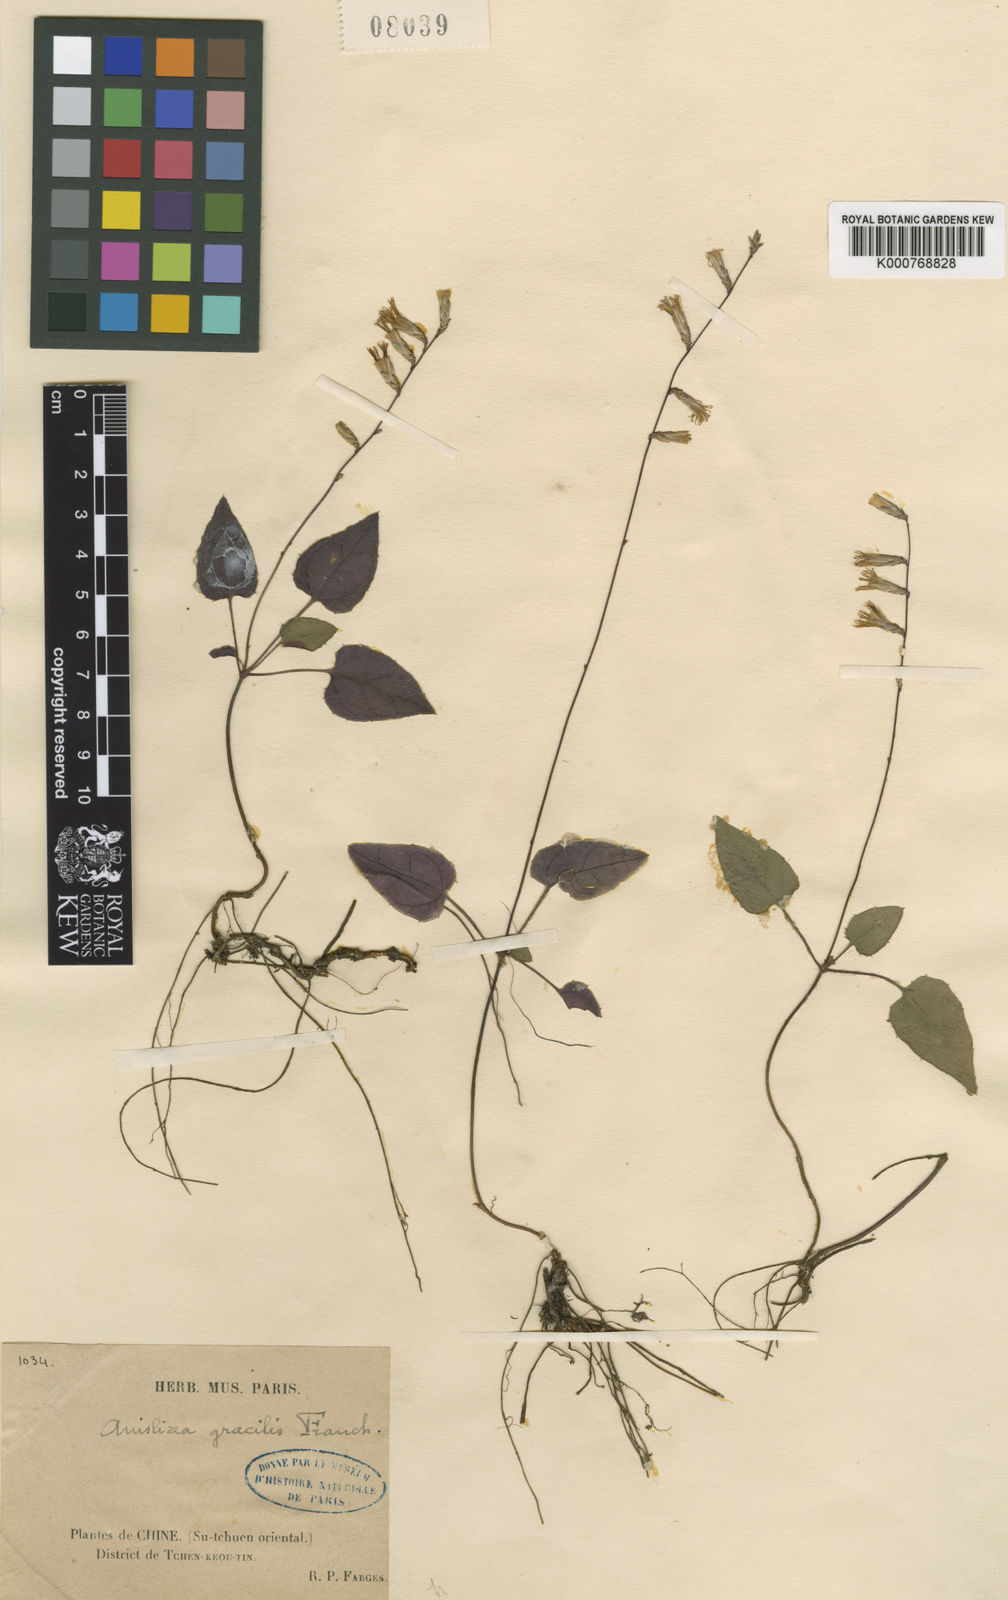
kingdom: Plantae
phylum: Tracheophyta
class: Magnoliopsida
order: Asterales
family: Asteraceae
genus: Ainsliaea
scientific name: Ainsliaea gracilis
